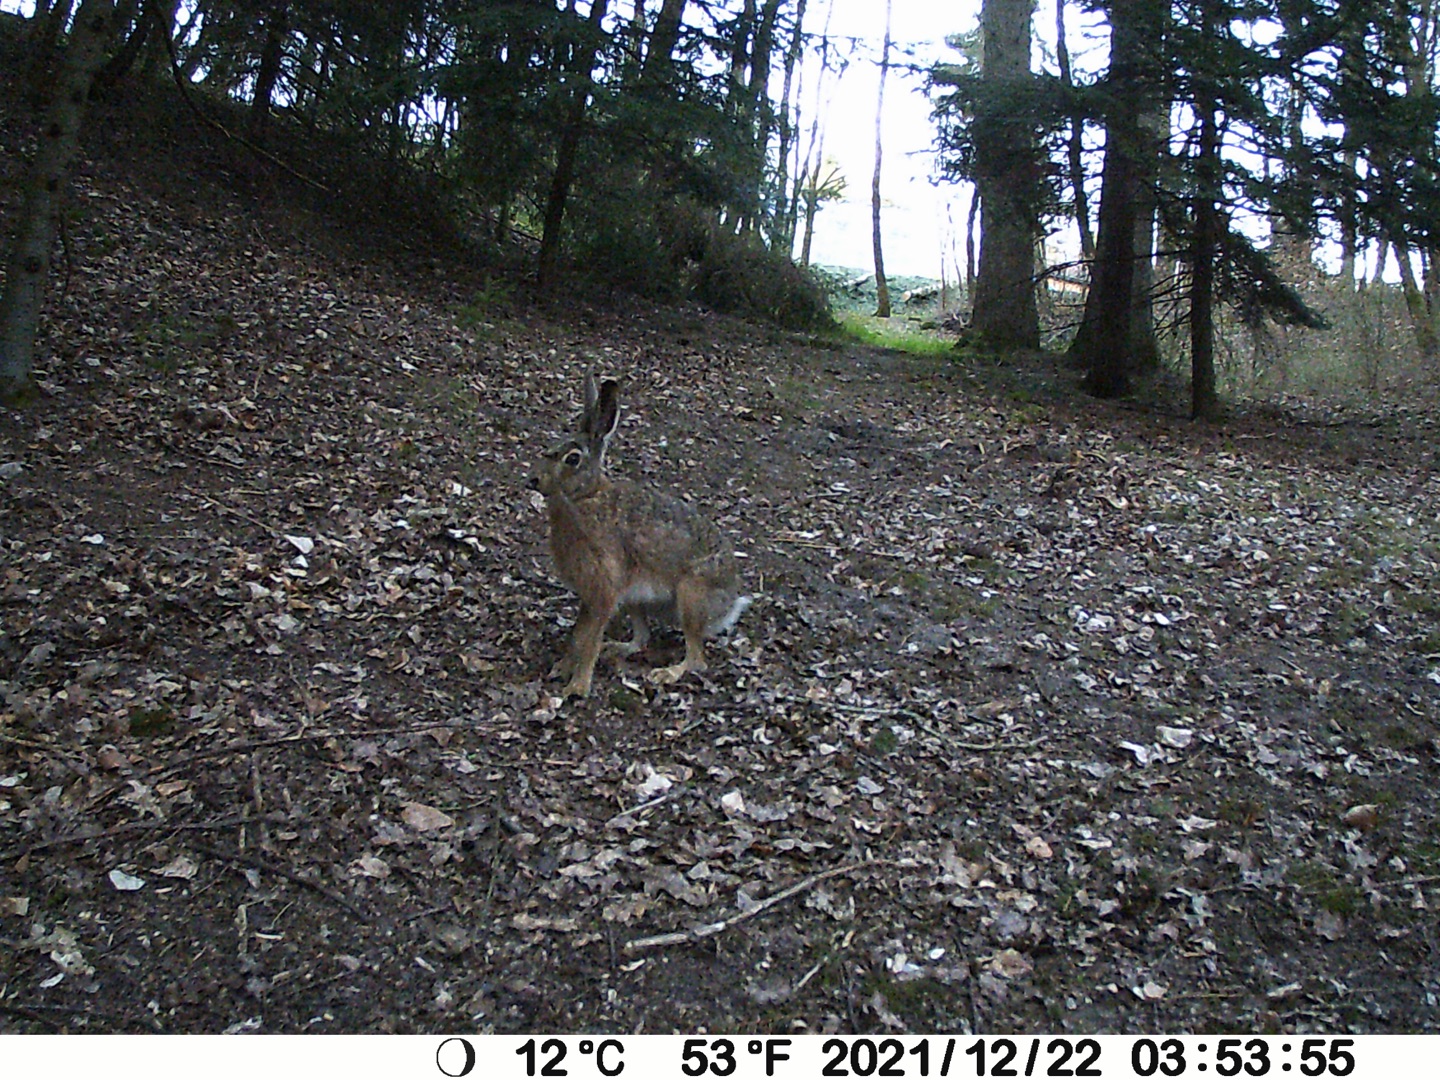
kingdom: Animalia
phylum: Chordata
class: Mammalia
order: Lagomorpha
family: Leporidae
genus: Lepus
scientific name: Lepus europaeus
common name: Hare
